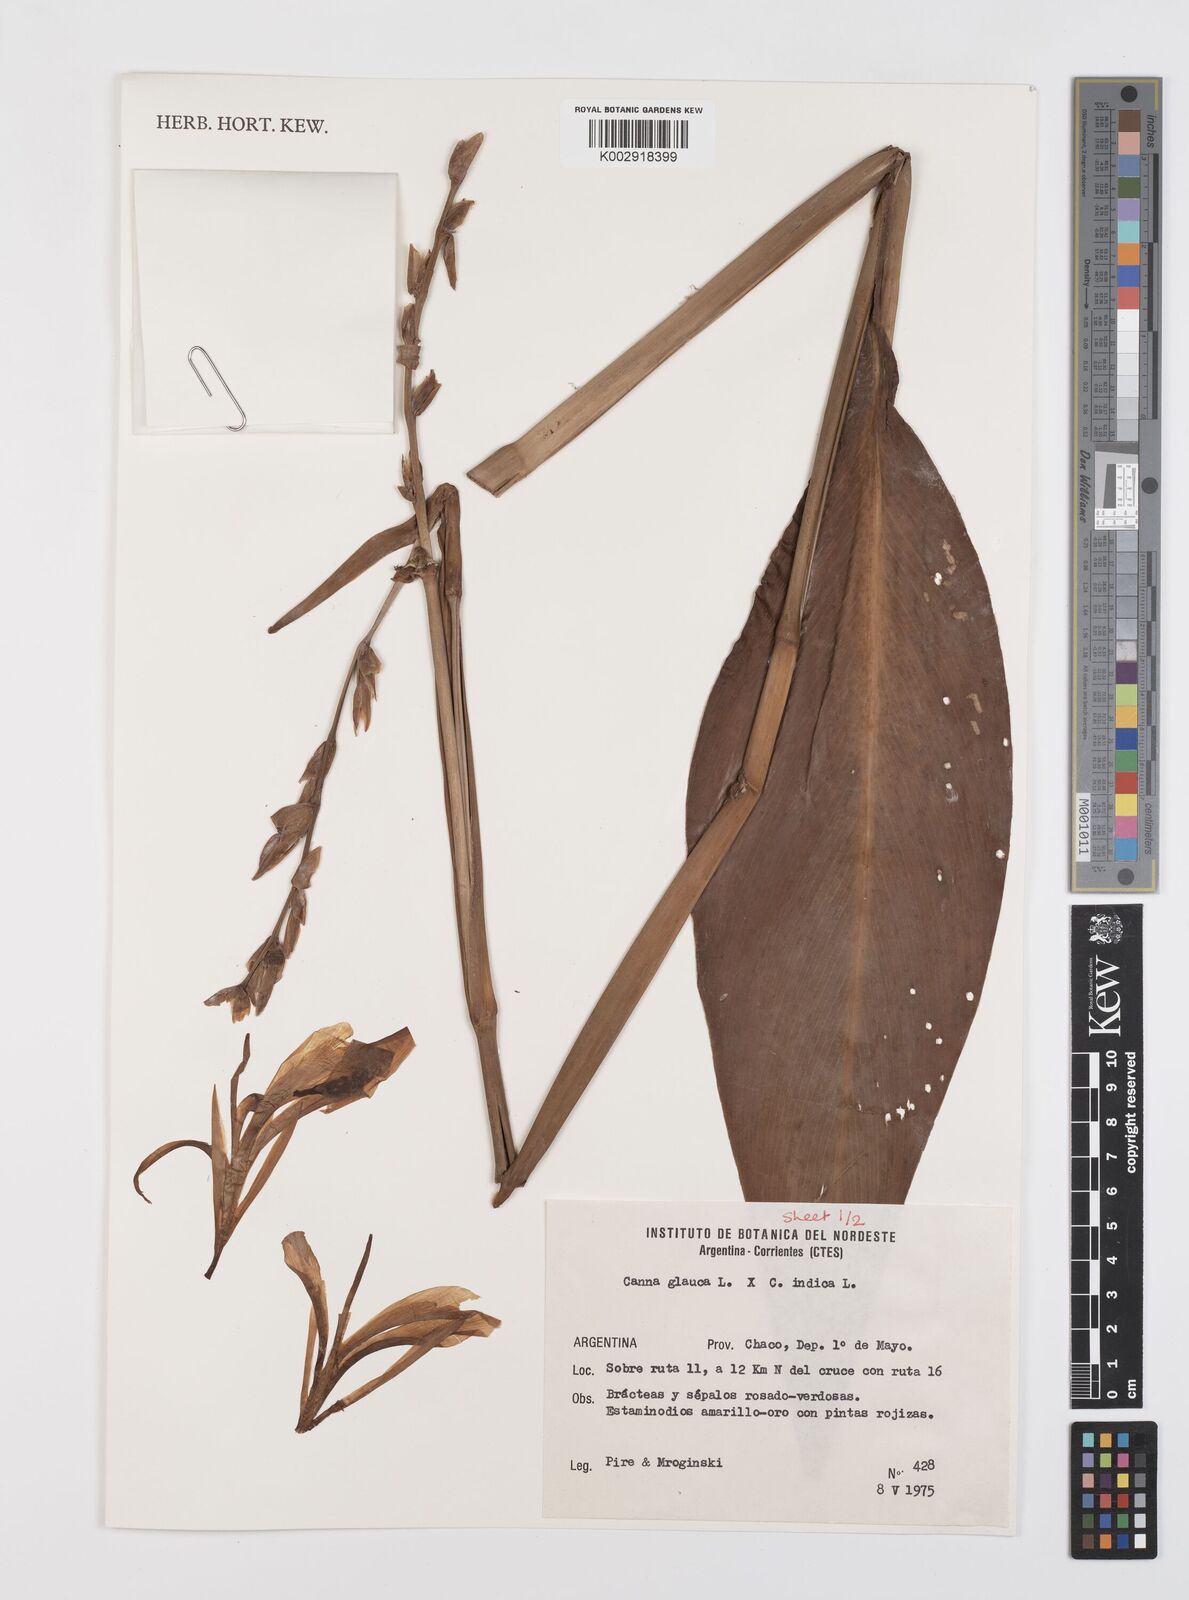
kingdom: Plantae
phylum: Tracheophyta
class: Liliopsida
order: Zingiberales
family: Cannaceae
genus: Canna
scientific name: Canna glauca
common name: Louisiana canna
